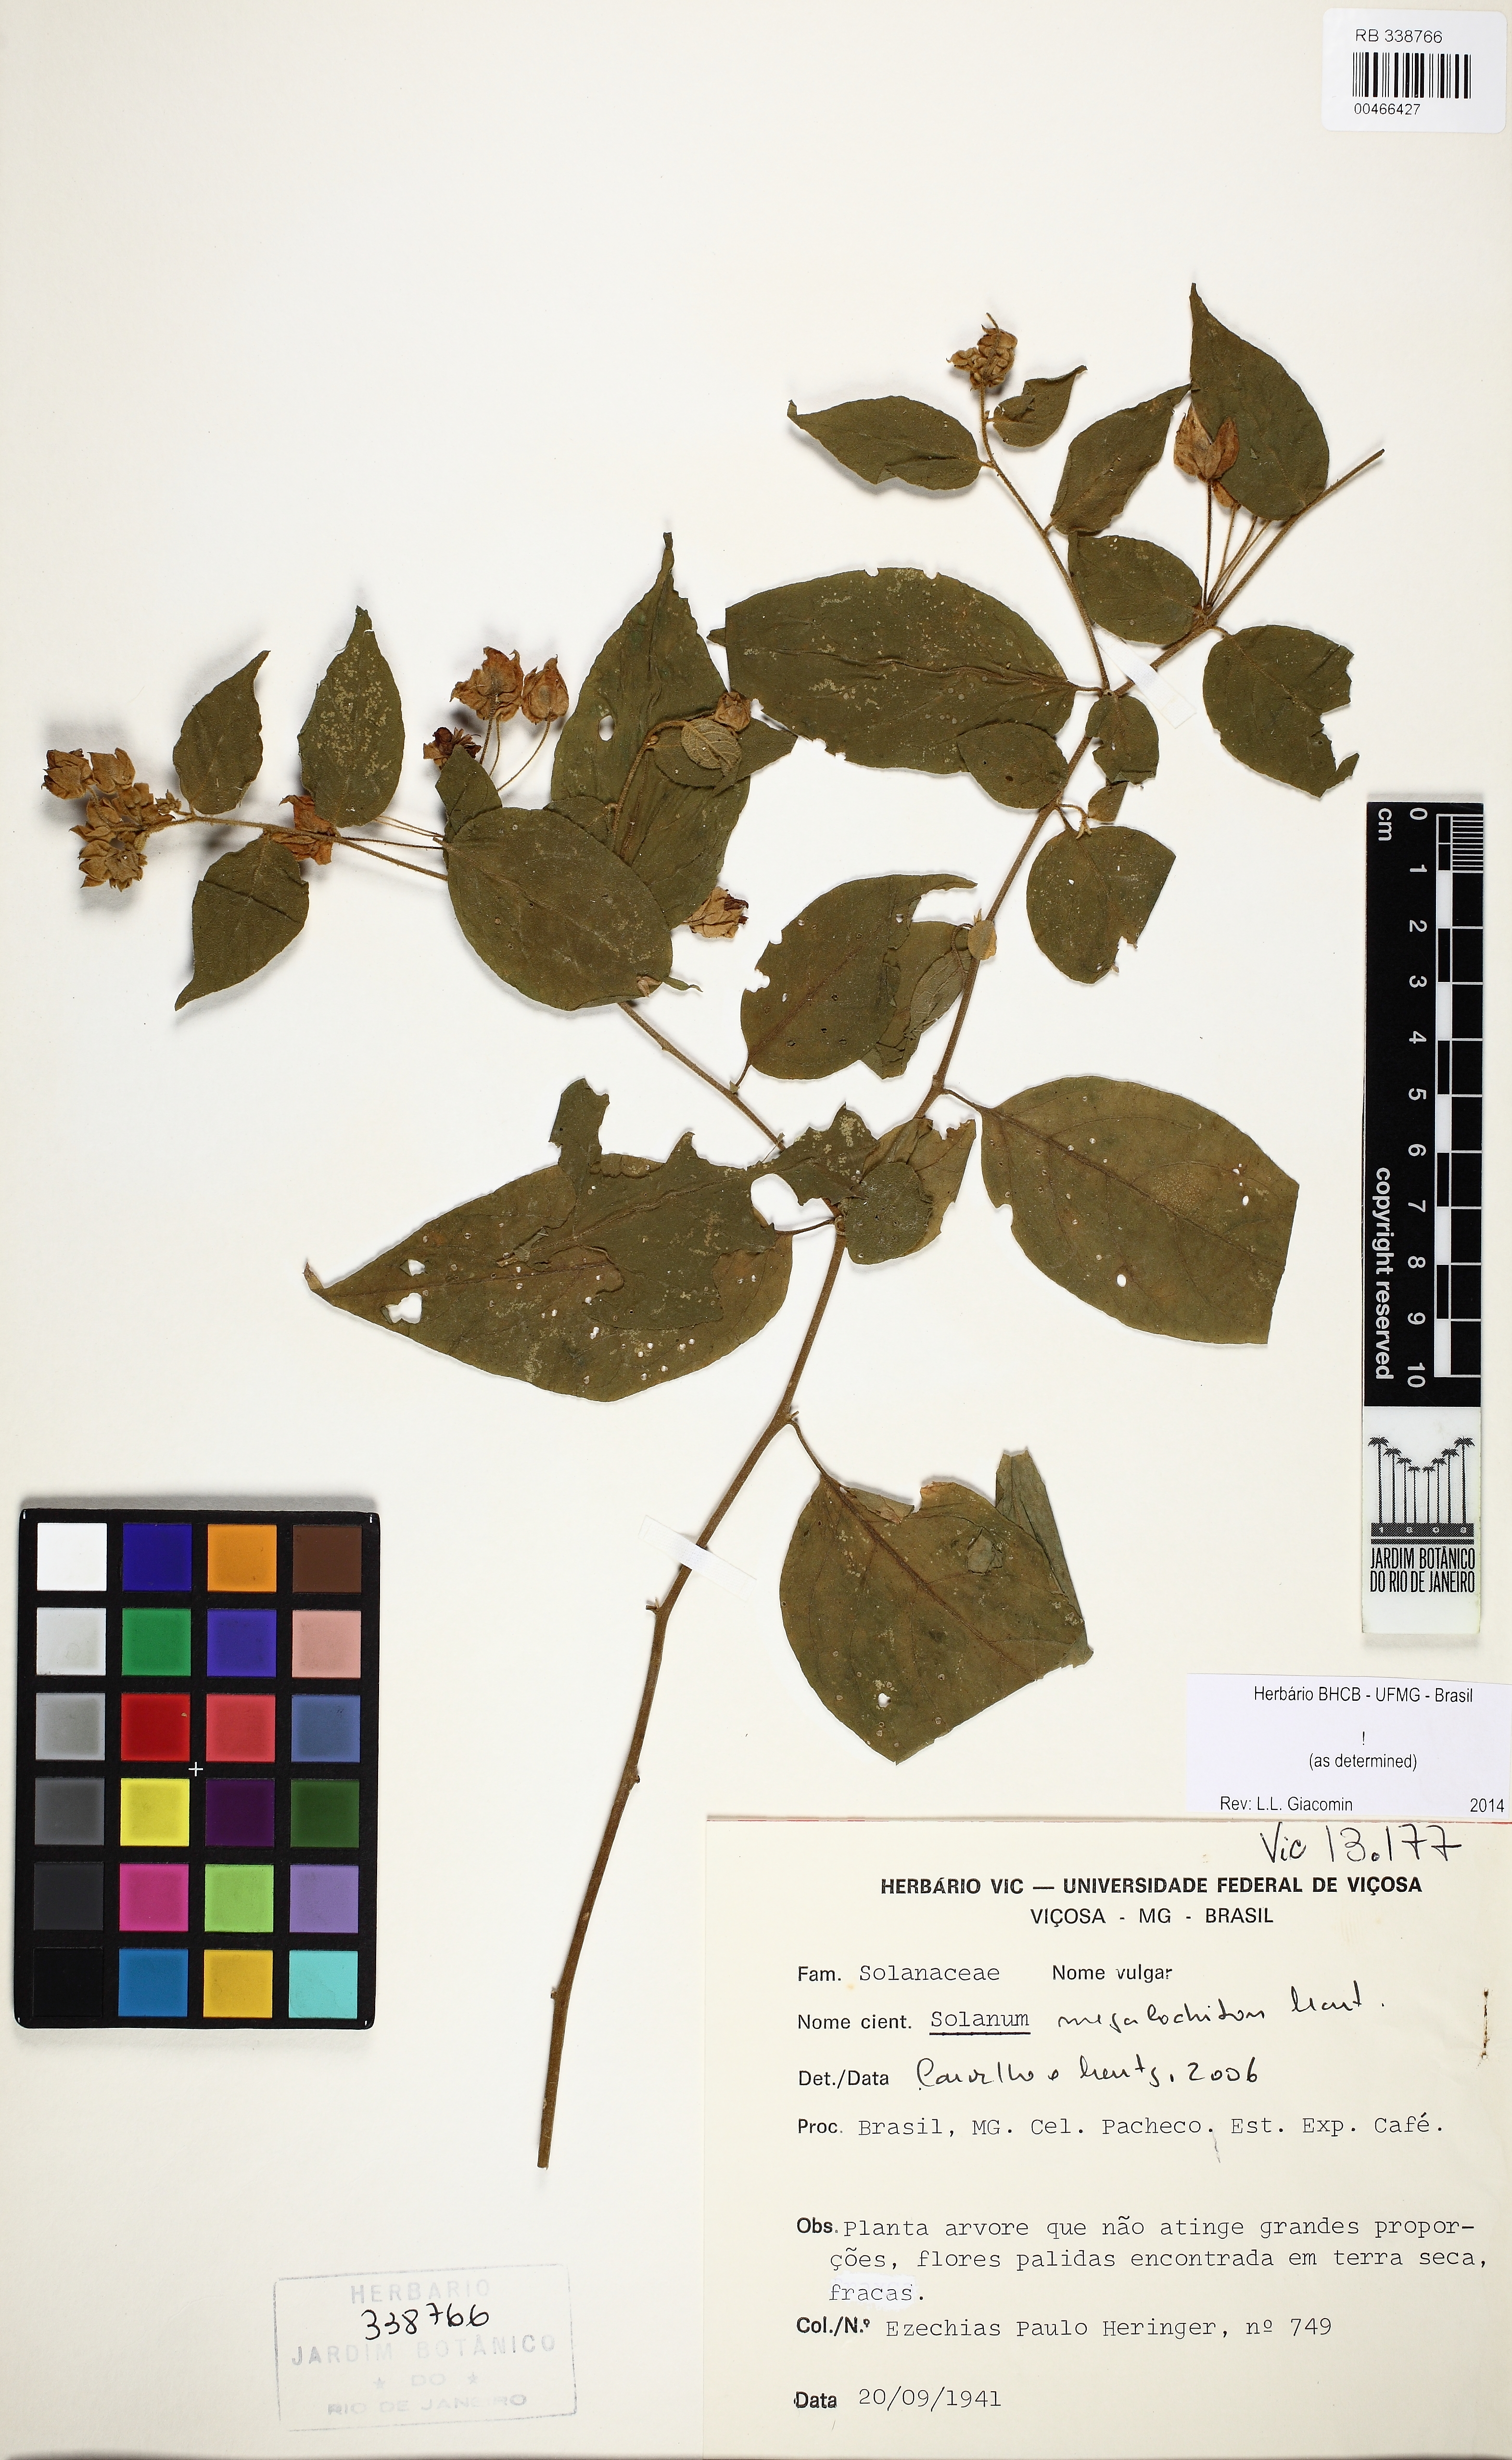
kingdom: Plantae
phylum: Tracheophyta
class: Magnoliopsida
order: Solanales
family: Solanaceae
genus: Solanum
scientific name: Solanum megalochiton
